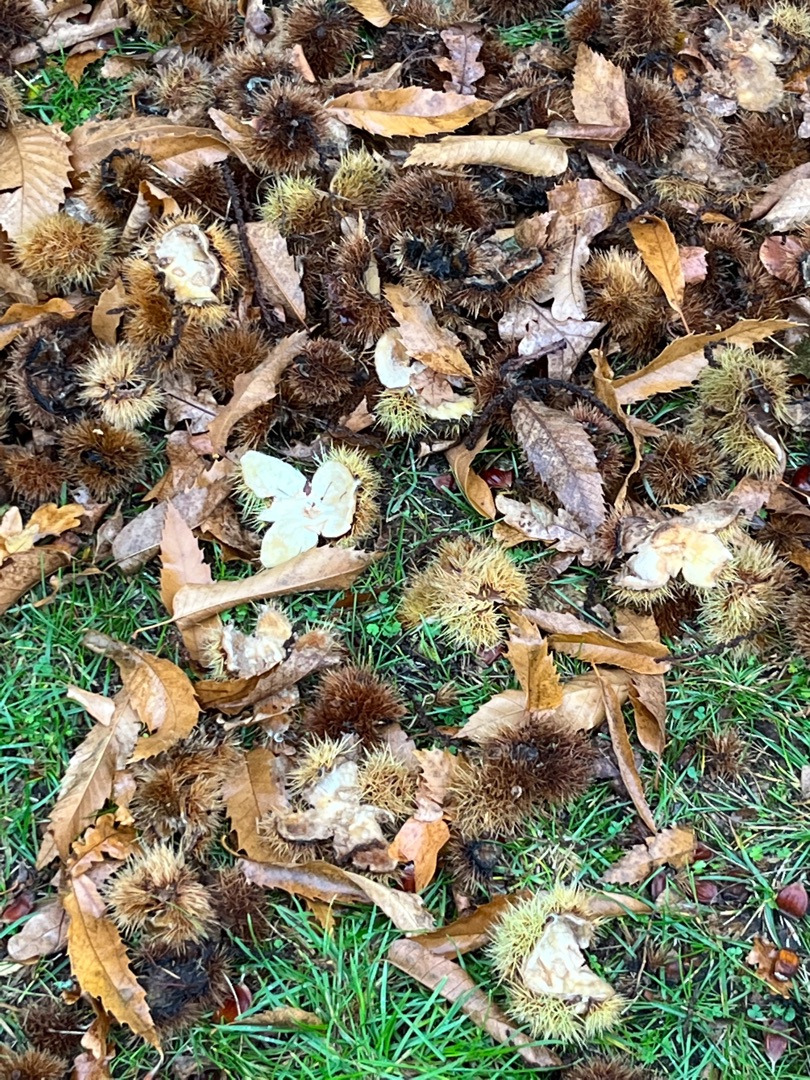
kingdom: Plantae
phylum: Tracheophyta
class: Magnoliopsida
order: Fagales
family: Fagaceae
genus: Castanea
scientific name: Castanea sativa
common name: Ægte kastanie
